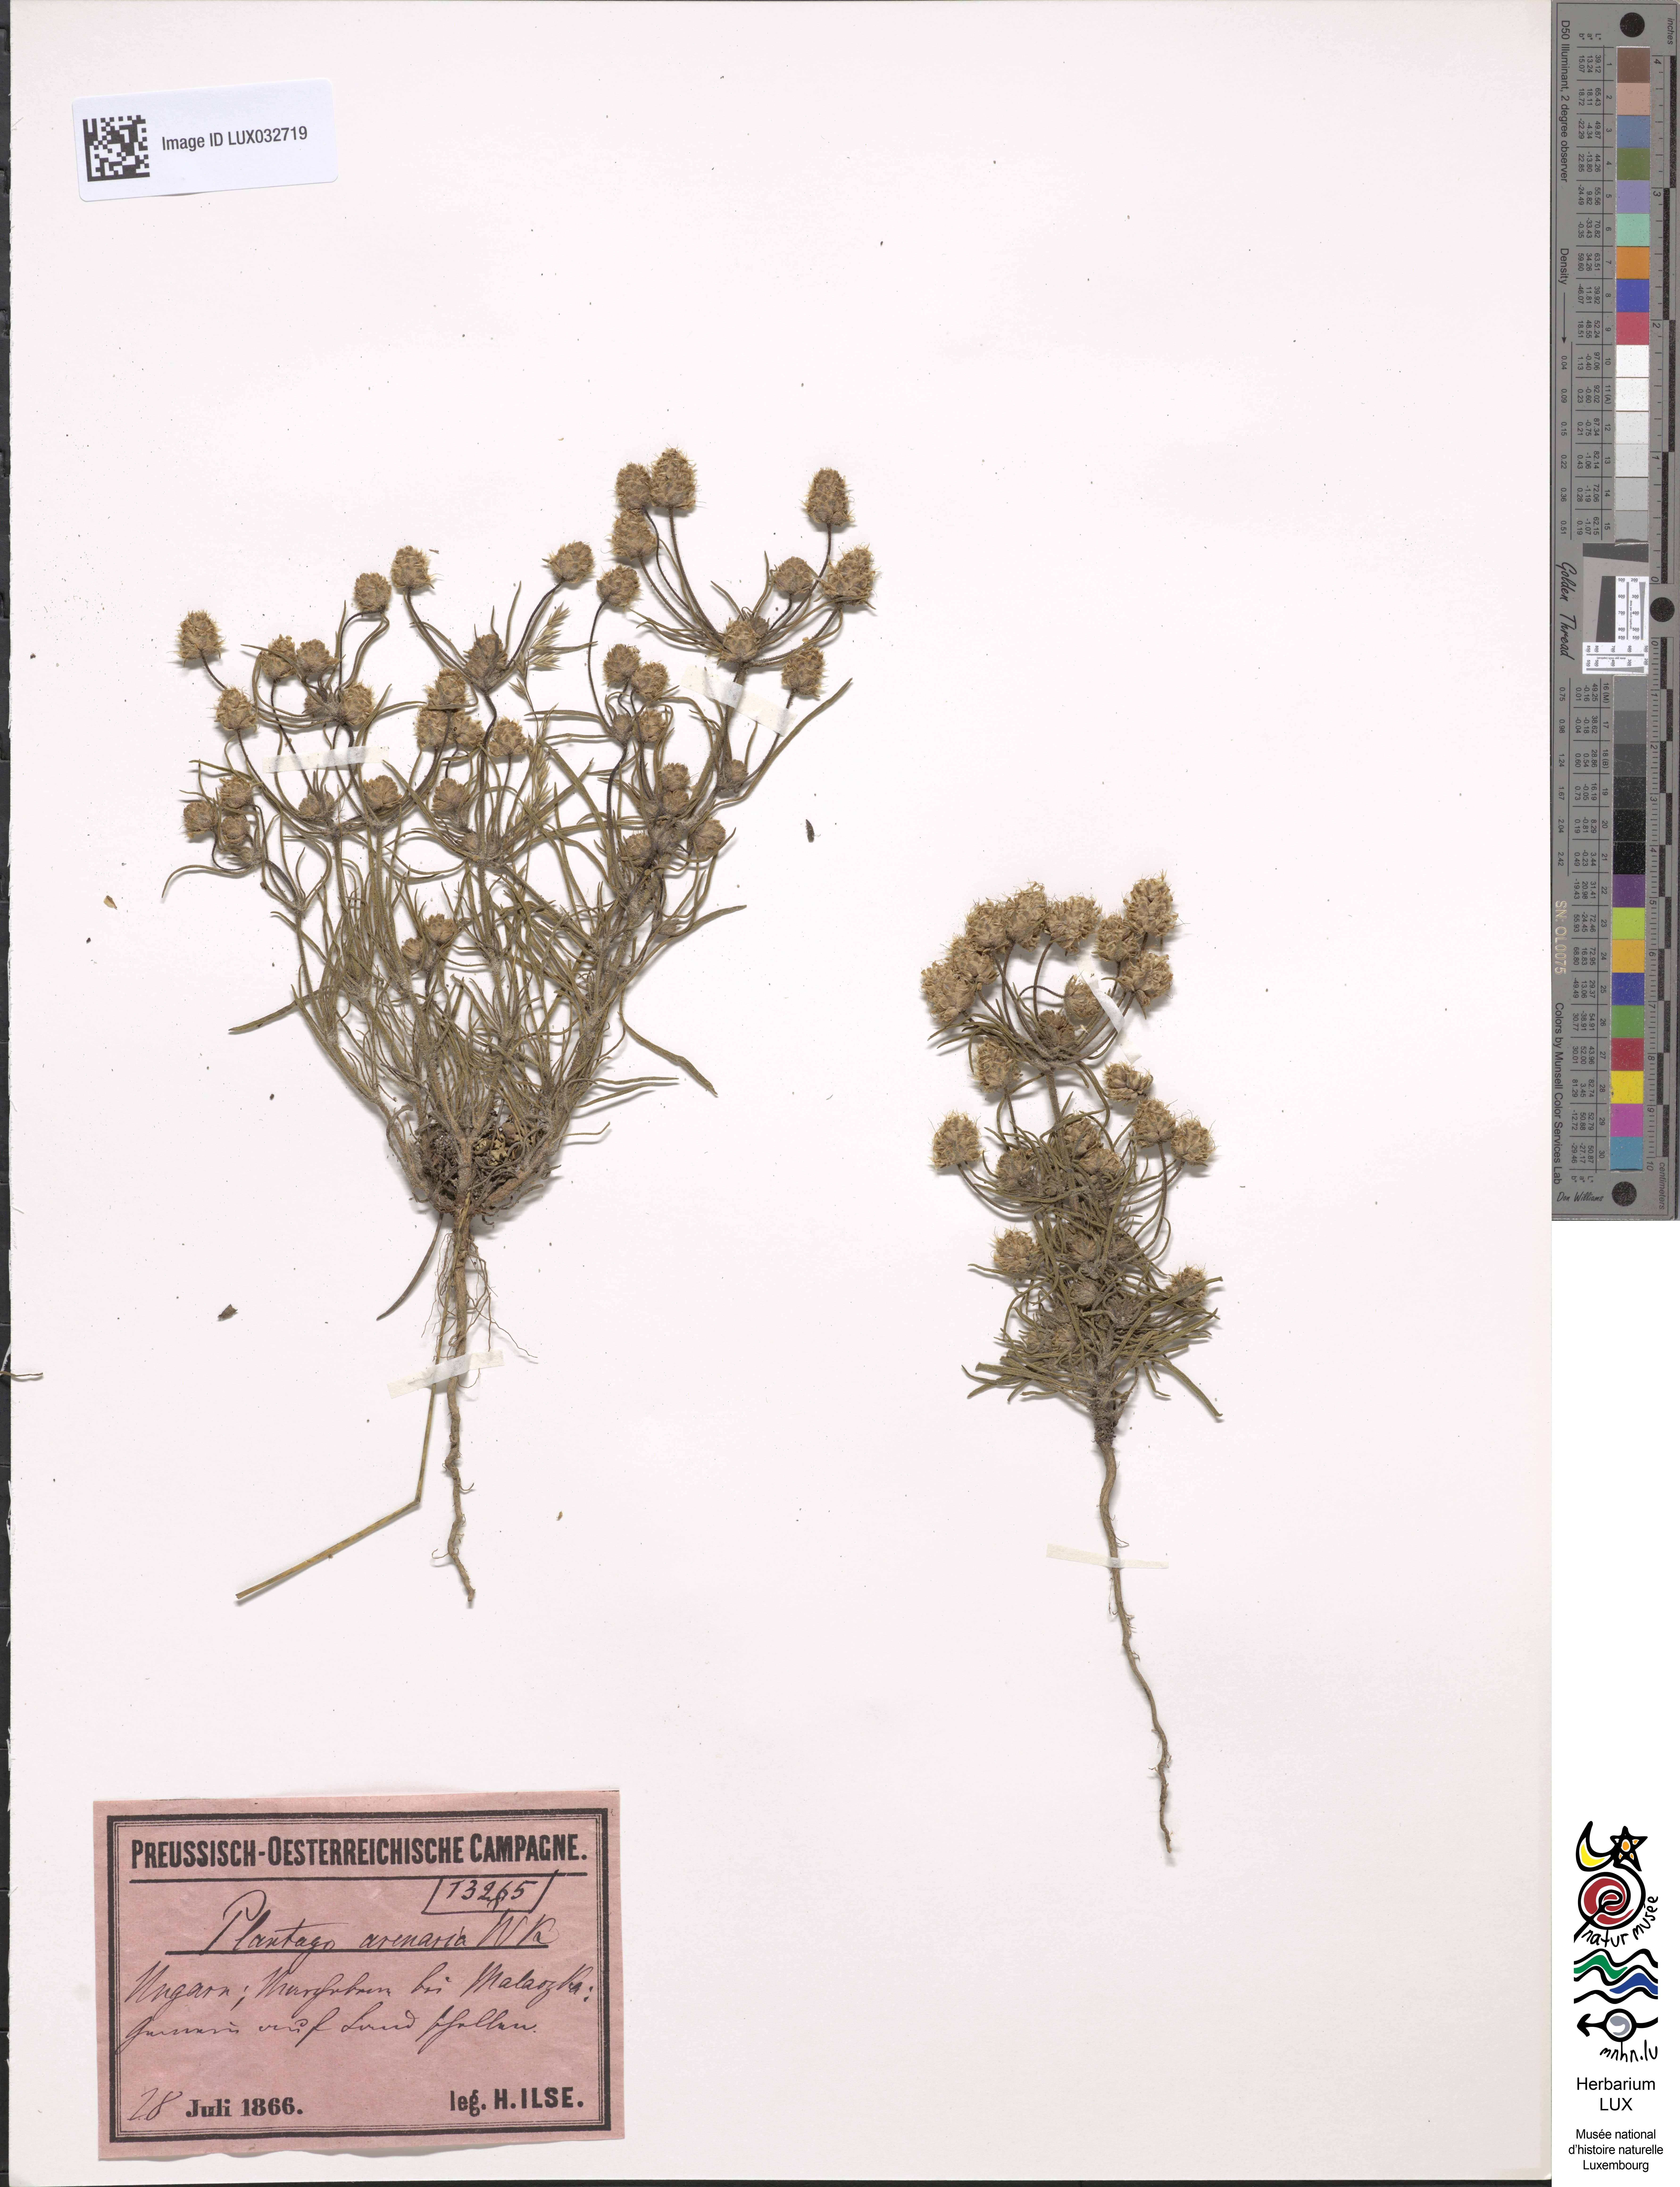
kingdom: Plantae
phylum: Tracheophyta
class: Magnoliopsida
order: Lamiales
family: Plantaginaceae
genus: Plantago
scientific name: Plantago arenaria
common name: Branched plantain
